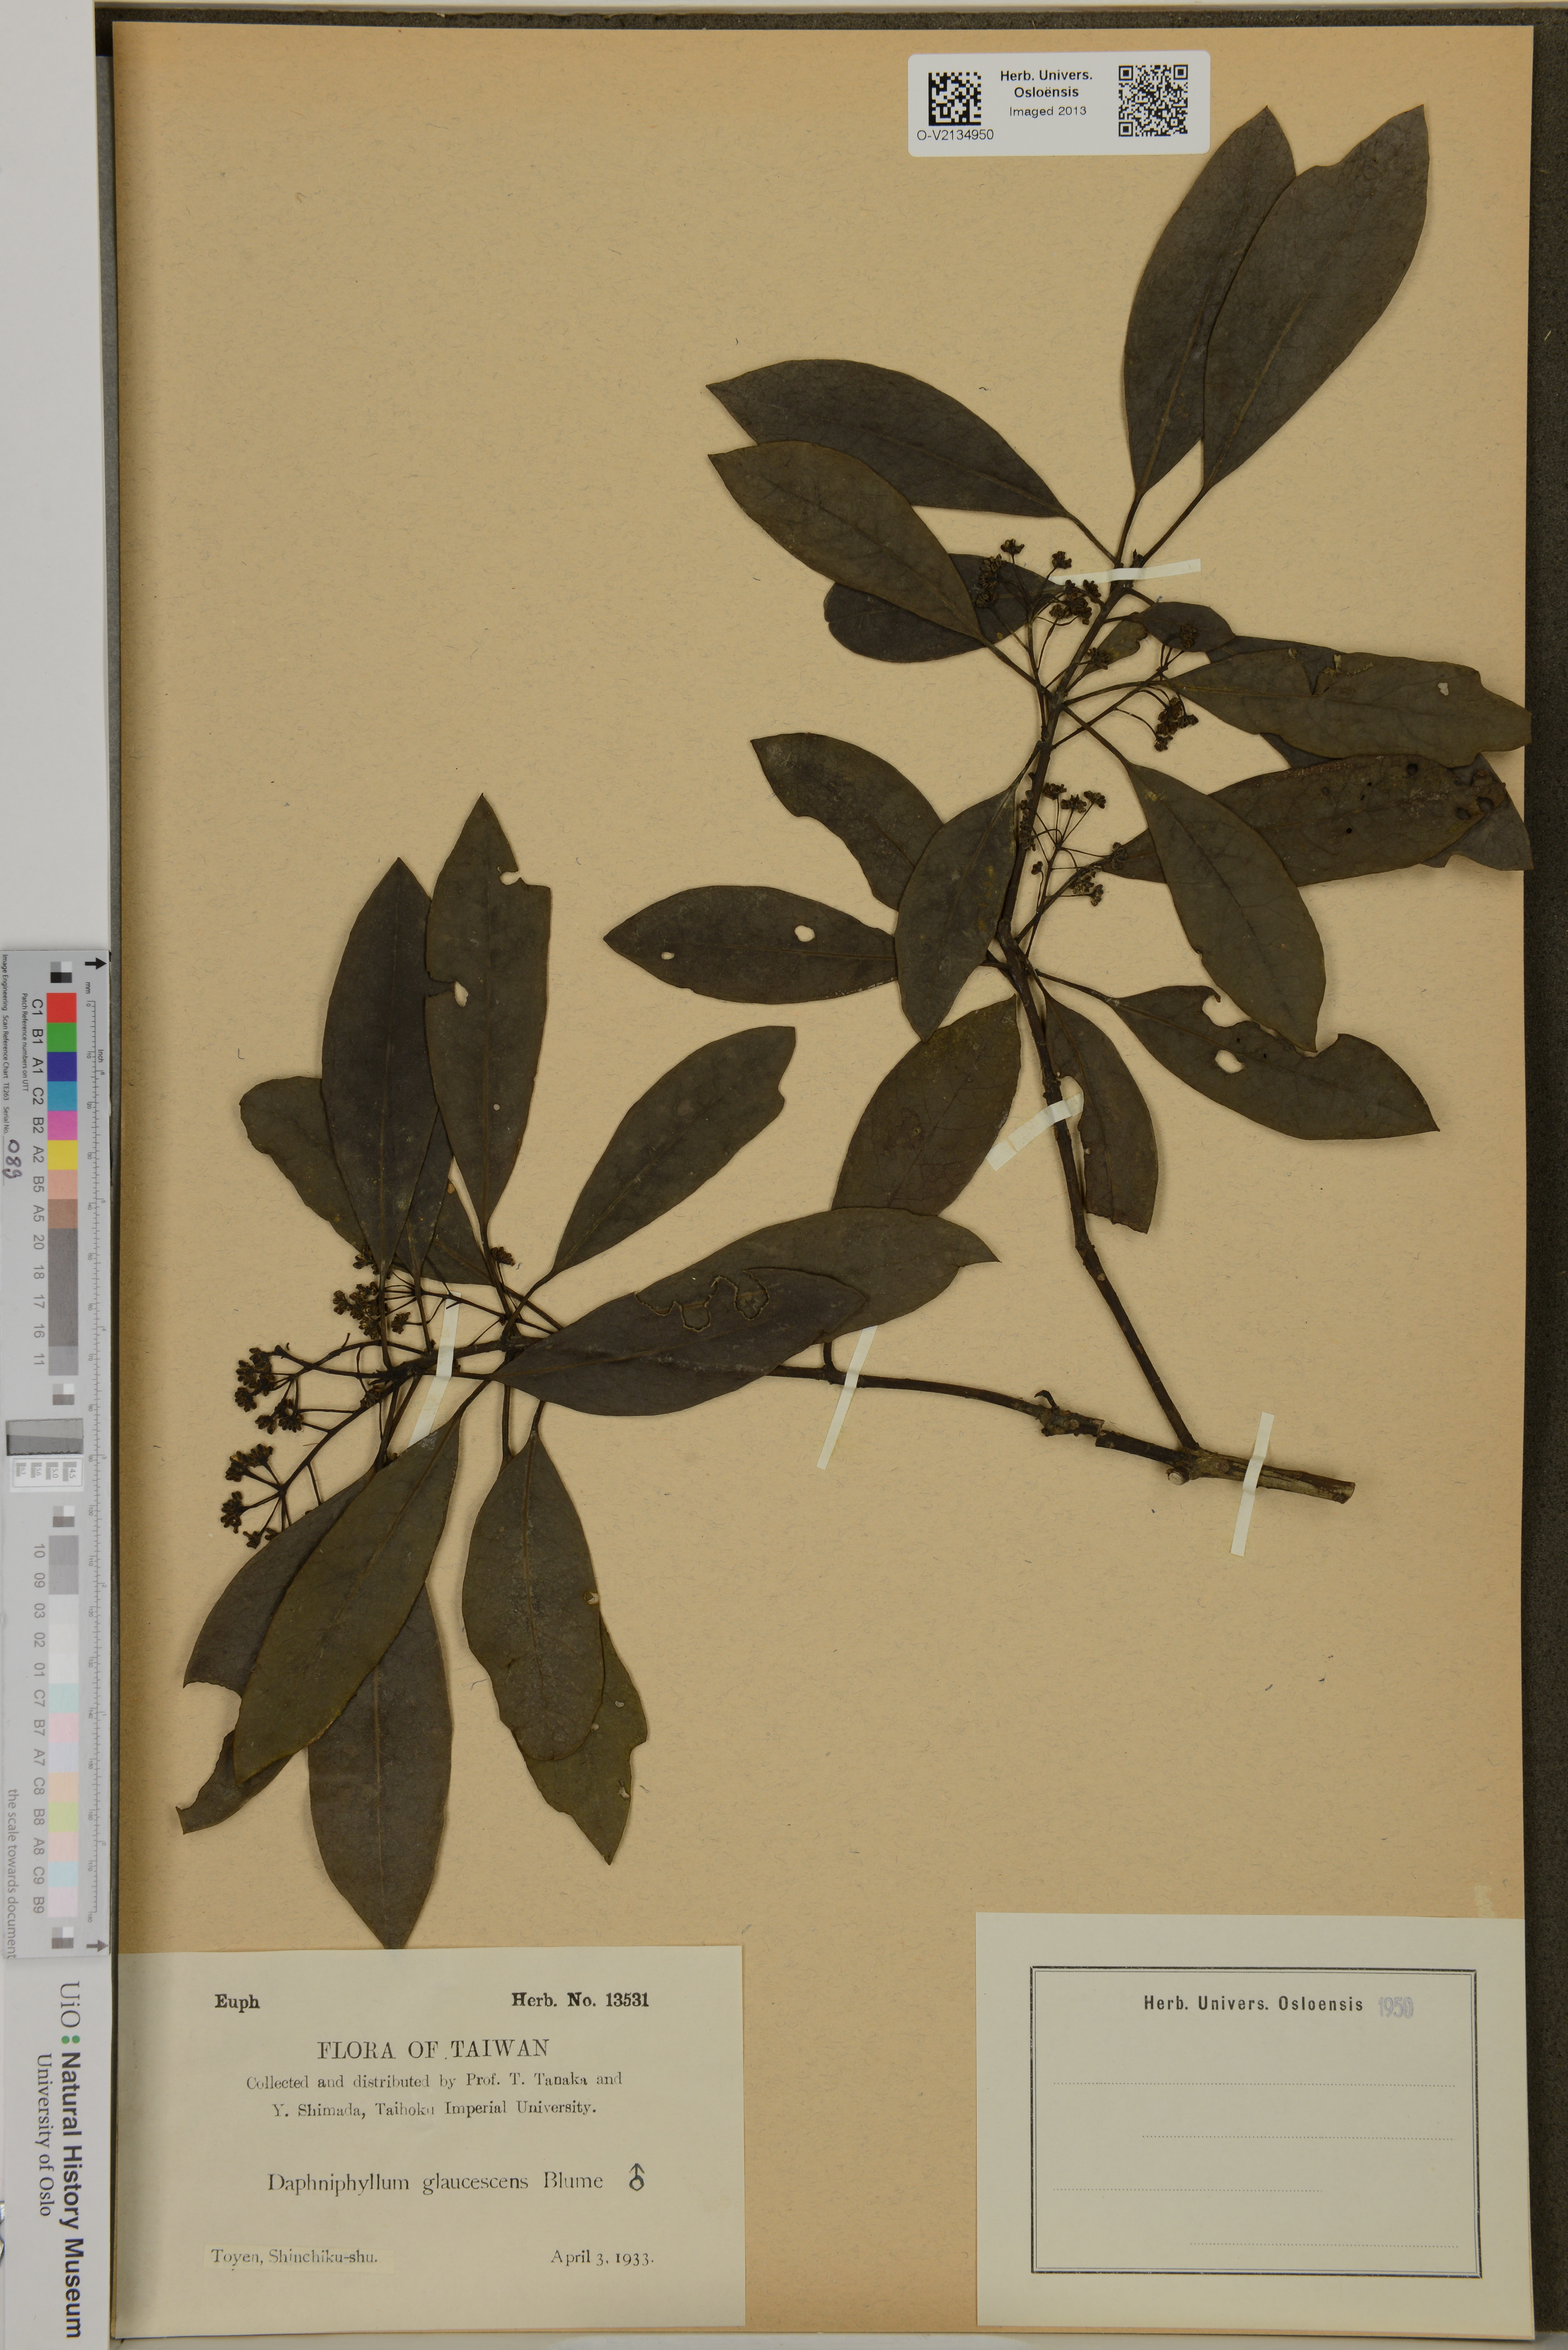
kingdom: Plantae
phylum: Tracheophyta
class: Magnoliopsida
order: Saxifragales
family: Daphniphyllaceae
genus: Daphniphyllum
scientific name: Daphniphyllum glaucescens
